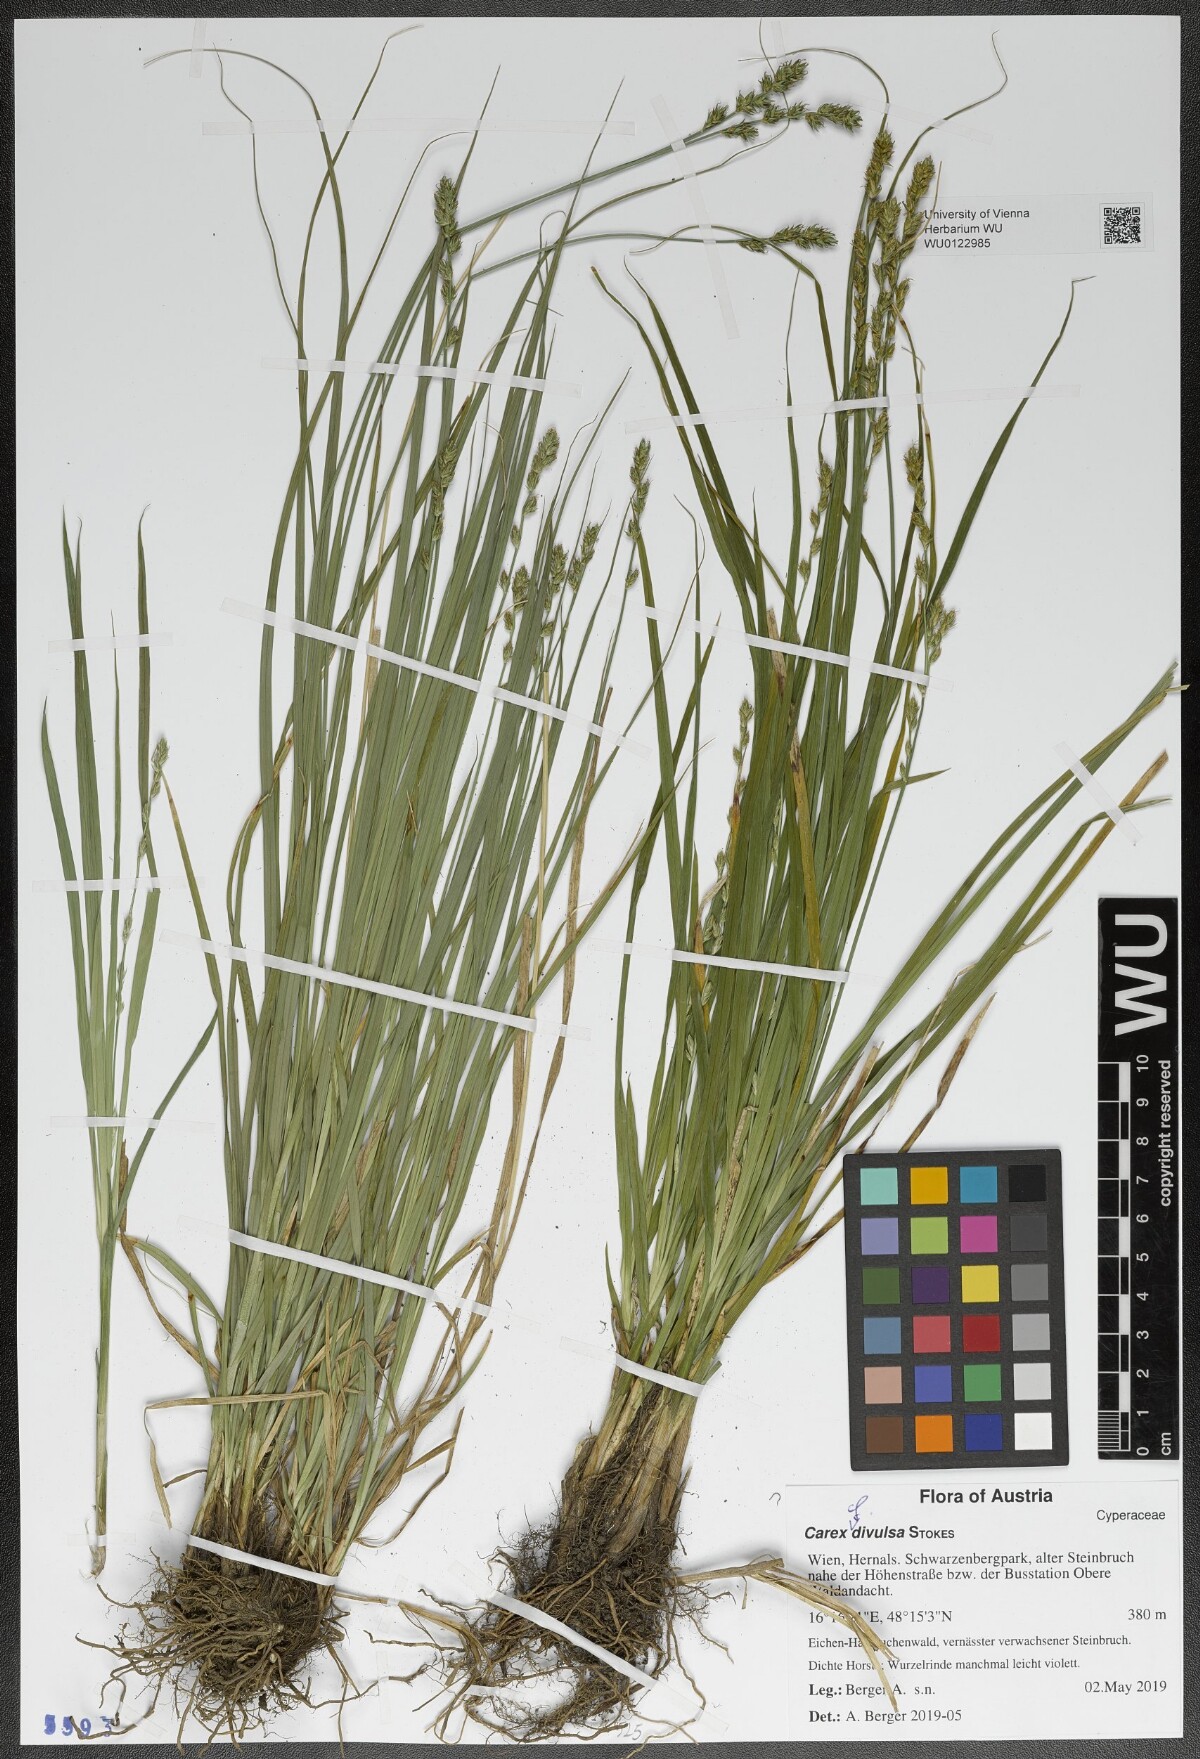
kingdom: Plantae
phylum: Tracheophyta
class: Liliopsida
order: Poales
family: Cyperaceae
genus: Carex
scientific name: Carex divulsa
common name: Grassland sedge
